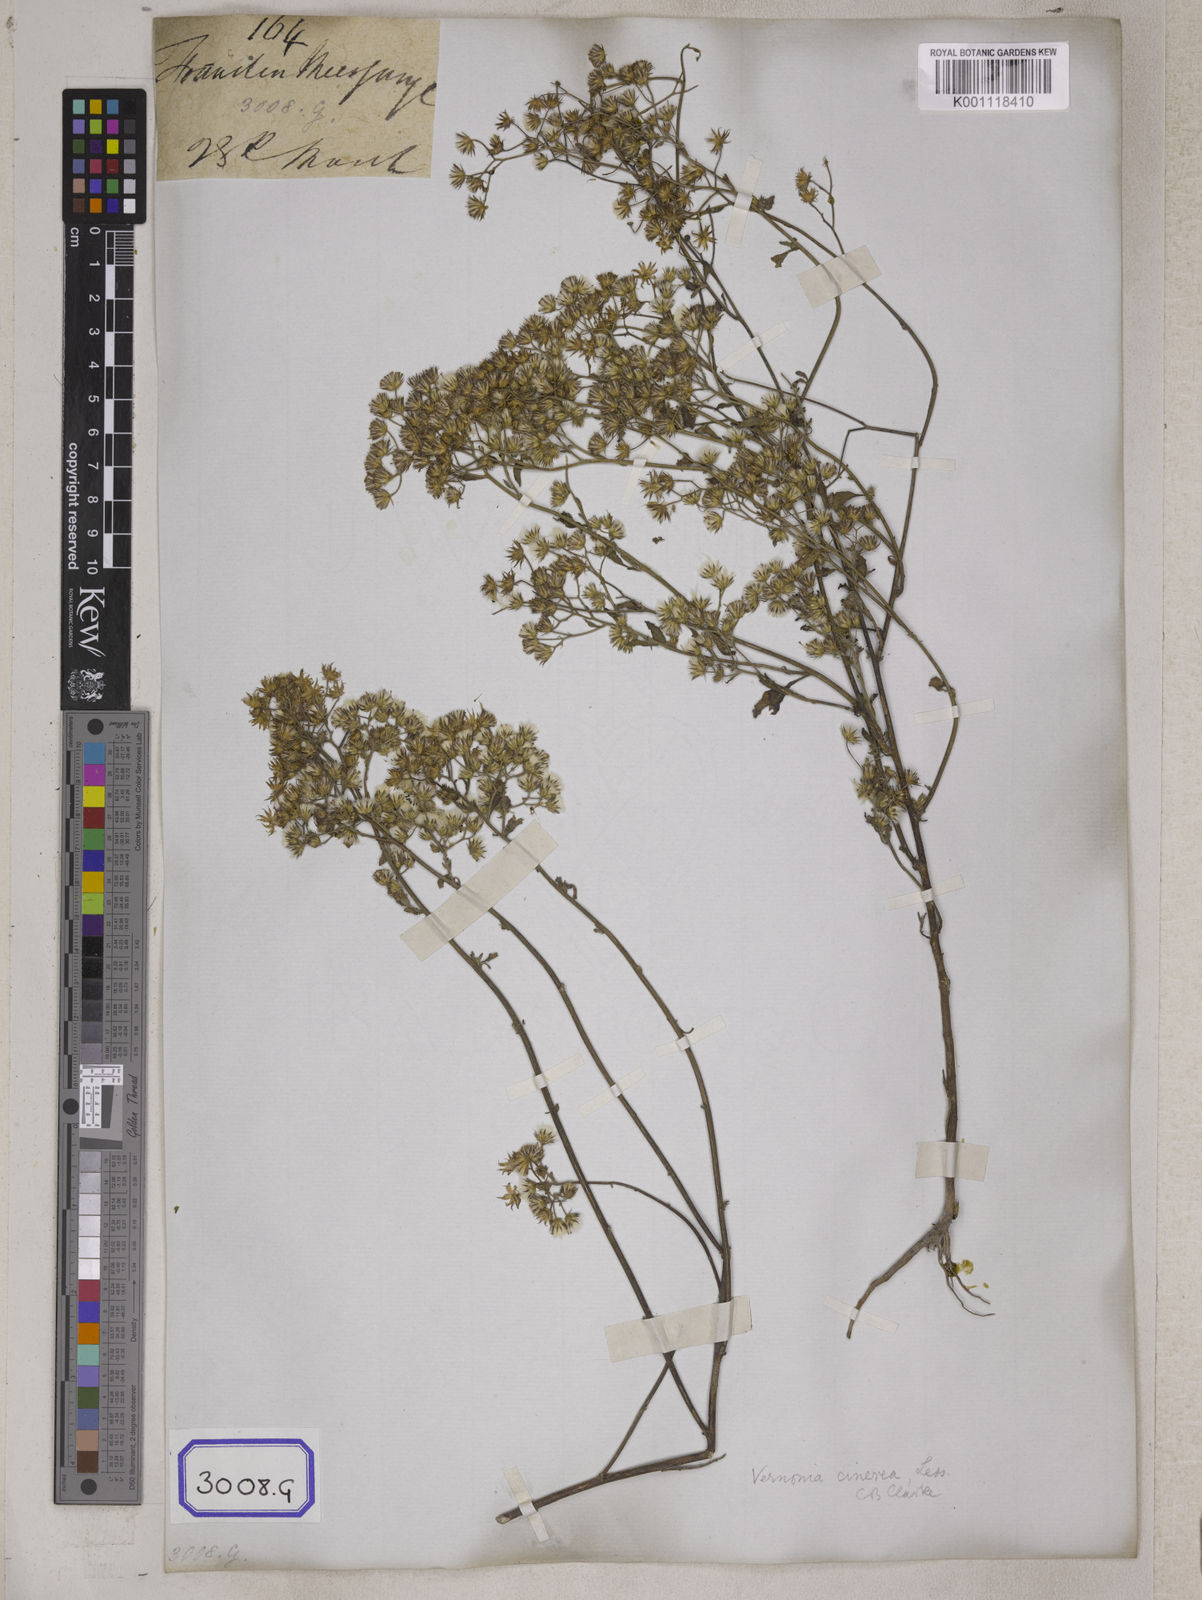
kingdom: Plantae
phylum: Tracheophyta
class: Magnoliopsida
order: Asterales
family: Asteraceae
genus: Cyanthillium
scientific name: Cyanthillium cinereum
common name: Little ironweed
